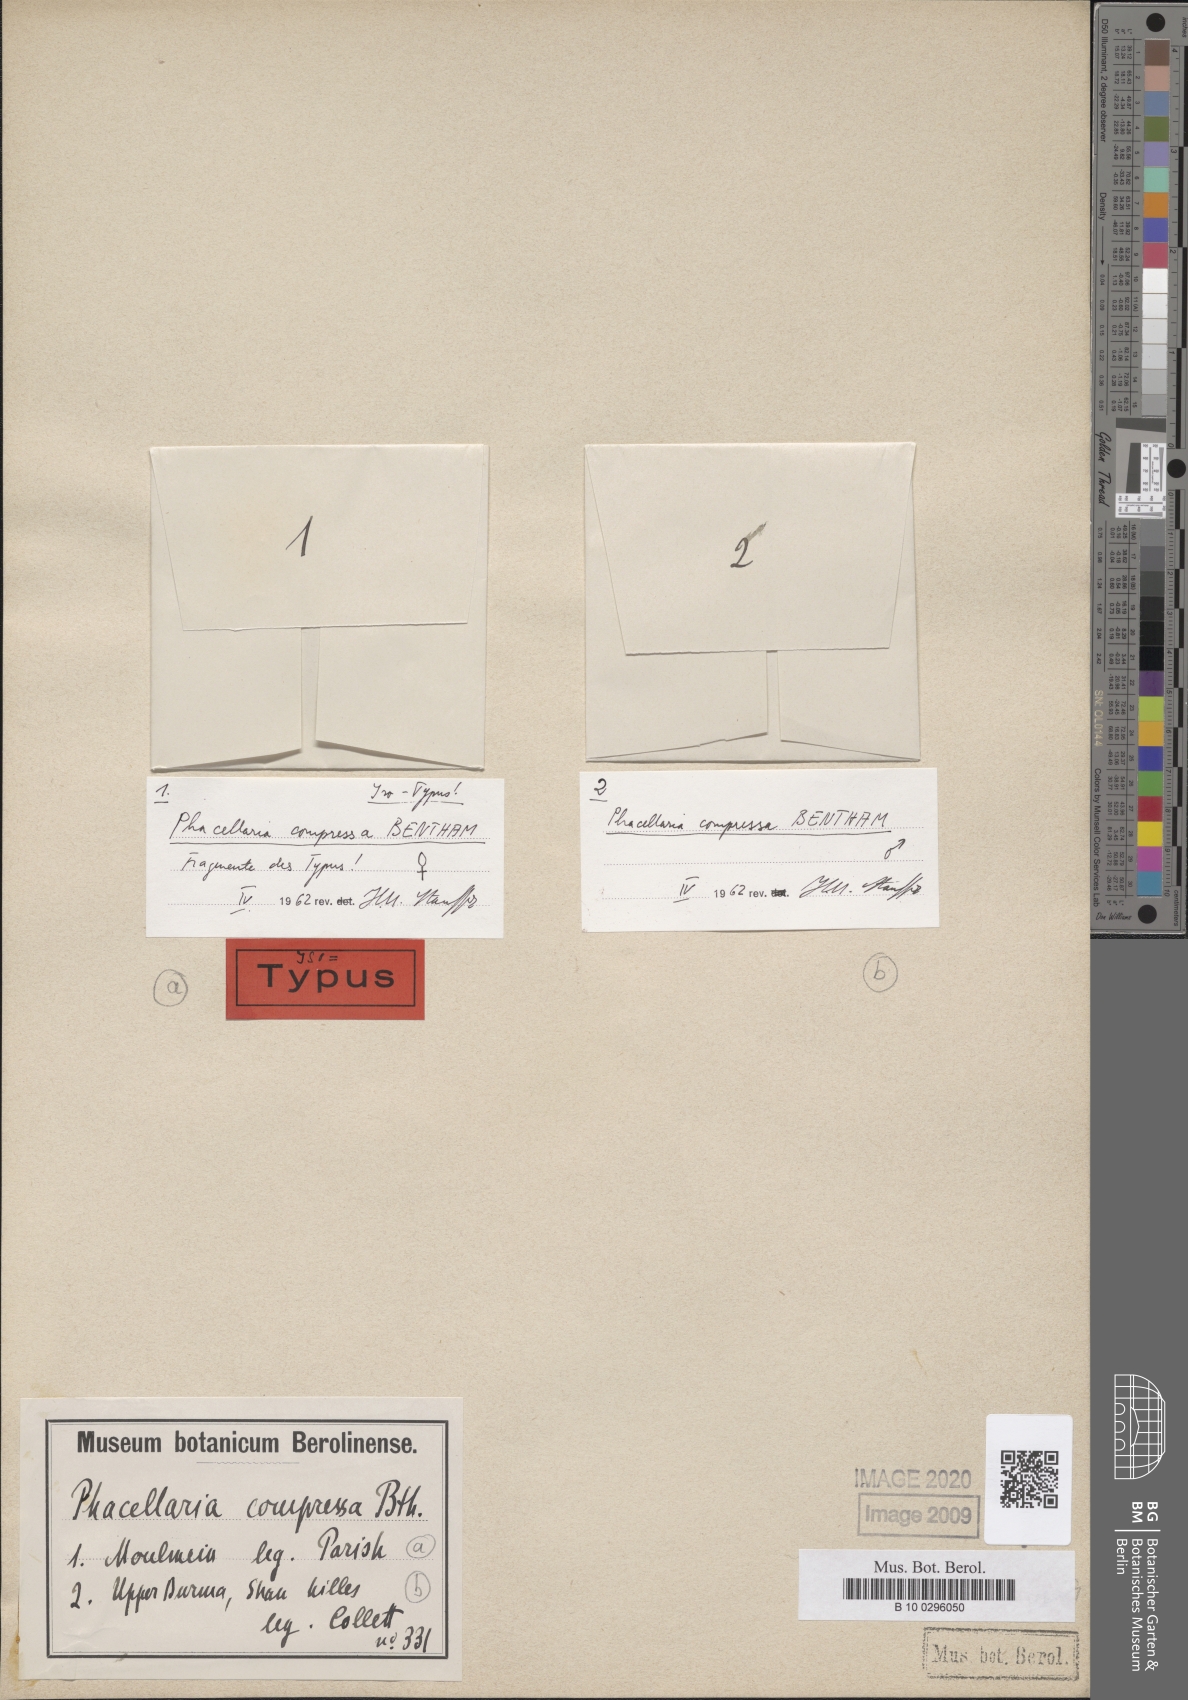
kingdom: Plantae
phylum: Tracheophyta
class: Magnoliopsida
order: Santalales
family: Amphorogynaceae
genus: Phacellaria
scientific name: Phacellaria compressa
